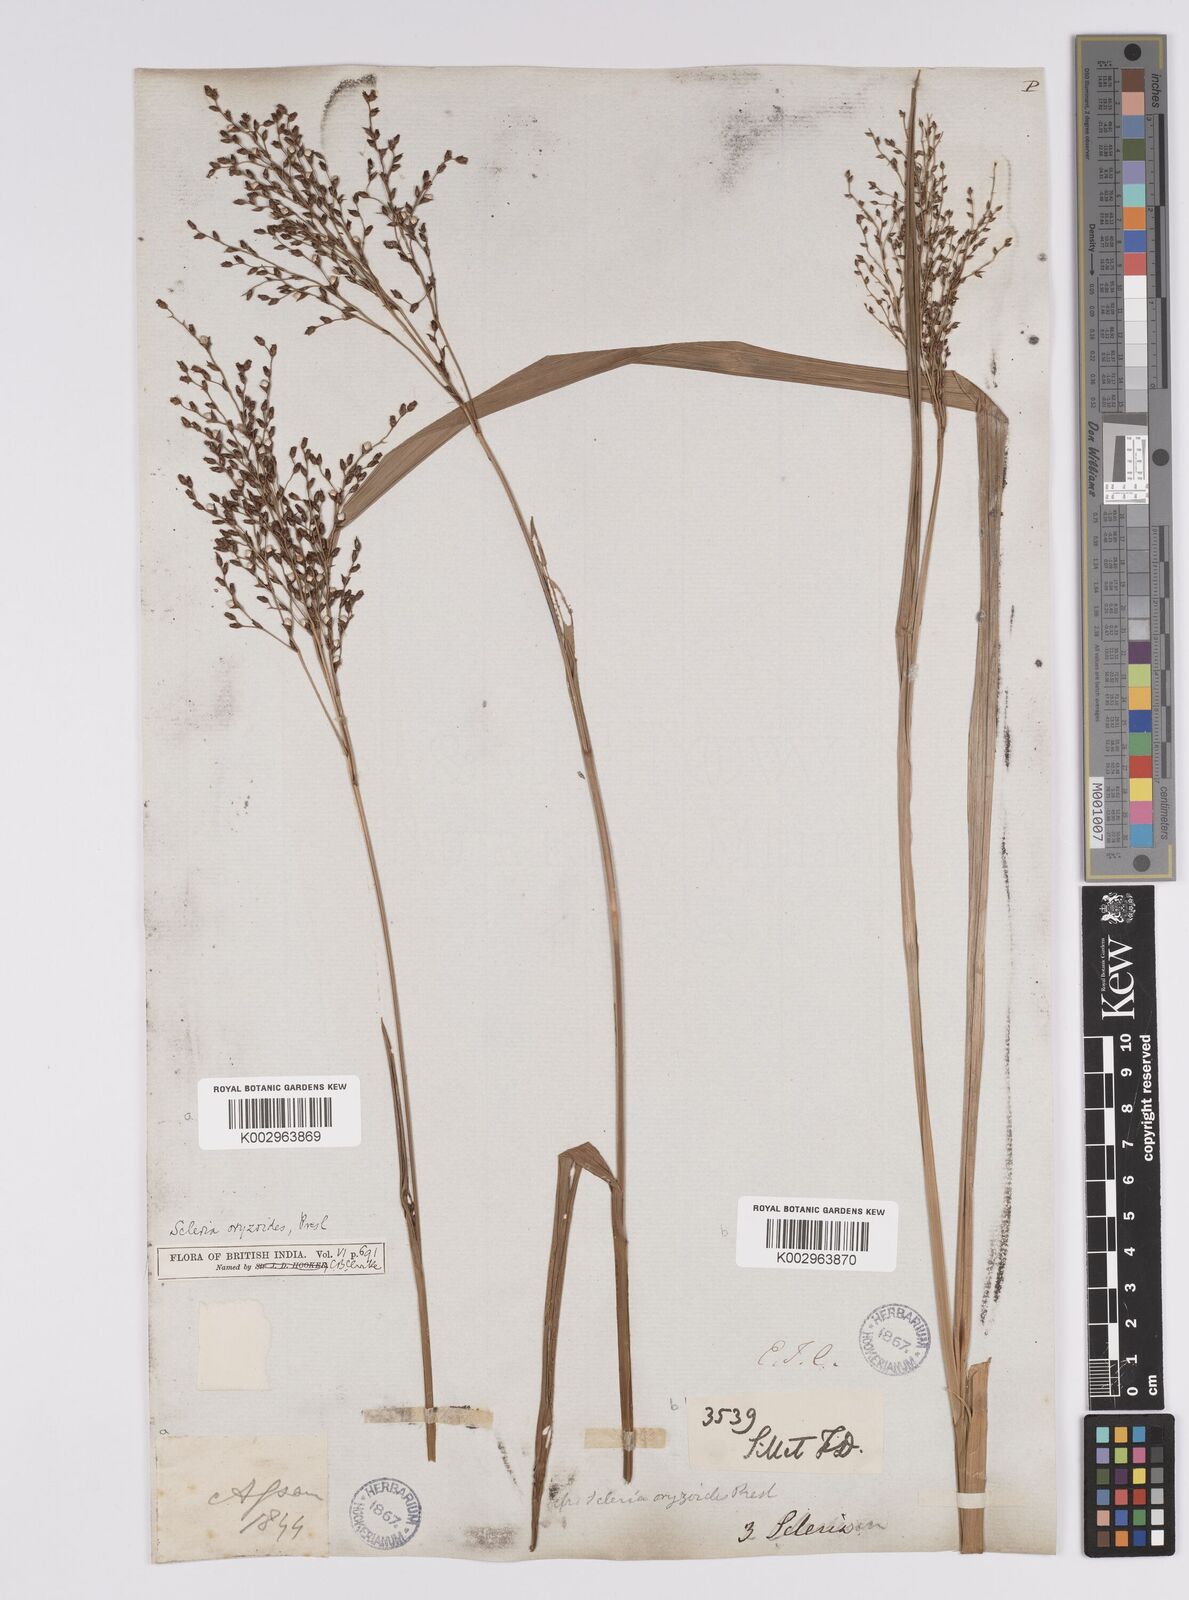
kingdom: Plantae
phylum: Tracheophyta
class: Liliopsida
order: Poales
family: Cyperaceae
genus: Scleria
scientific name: Scleria poiformis
